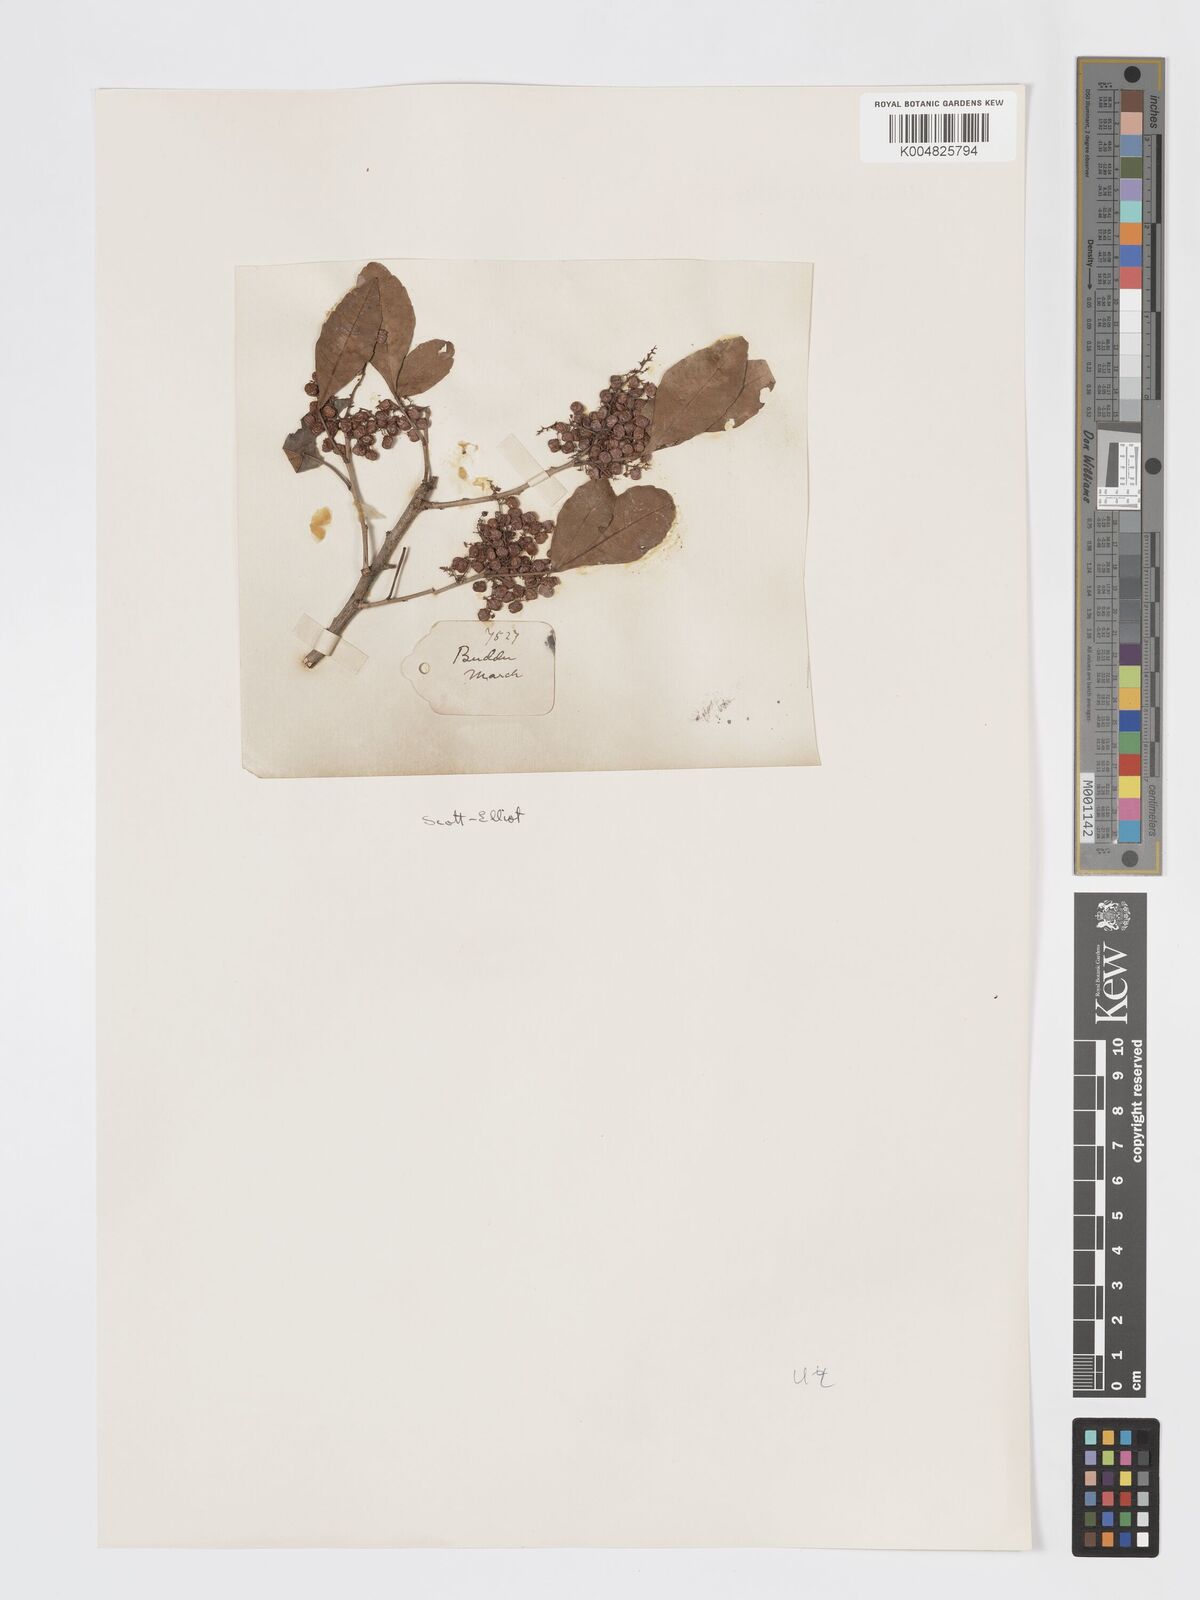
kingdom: Plantae
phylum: Tracheophyta
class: Magnoliopsida
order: Sapindales
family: Anacardiaceae
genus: Searsia
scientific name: Searsia natalensis
